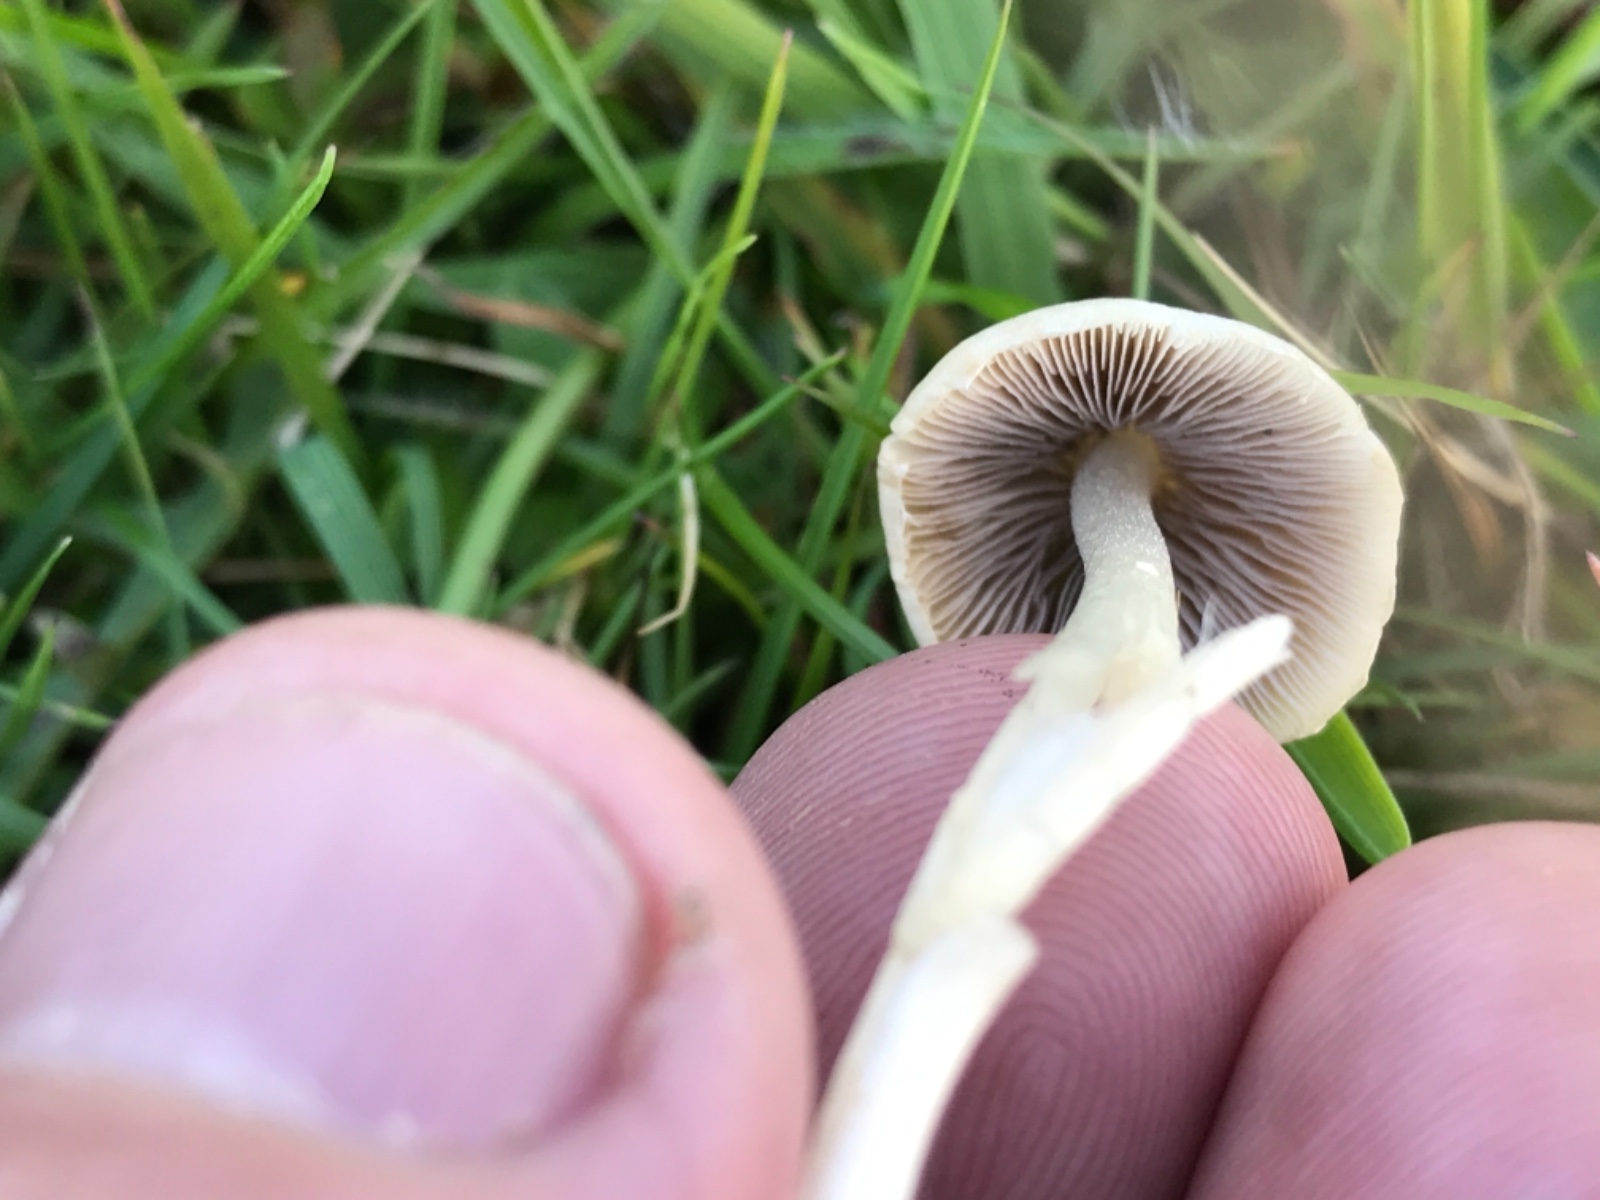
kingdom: Fungi
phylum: Basidiomycota
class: Agaricomycetes
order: Agaricales
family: Psathyrellaceae
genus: Candolleomyces
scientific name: Candolleomyces candolleanus
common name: Candolles mørkhat
